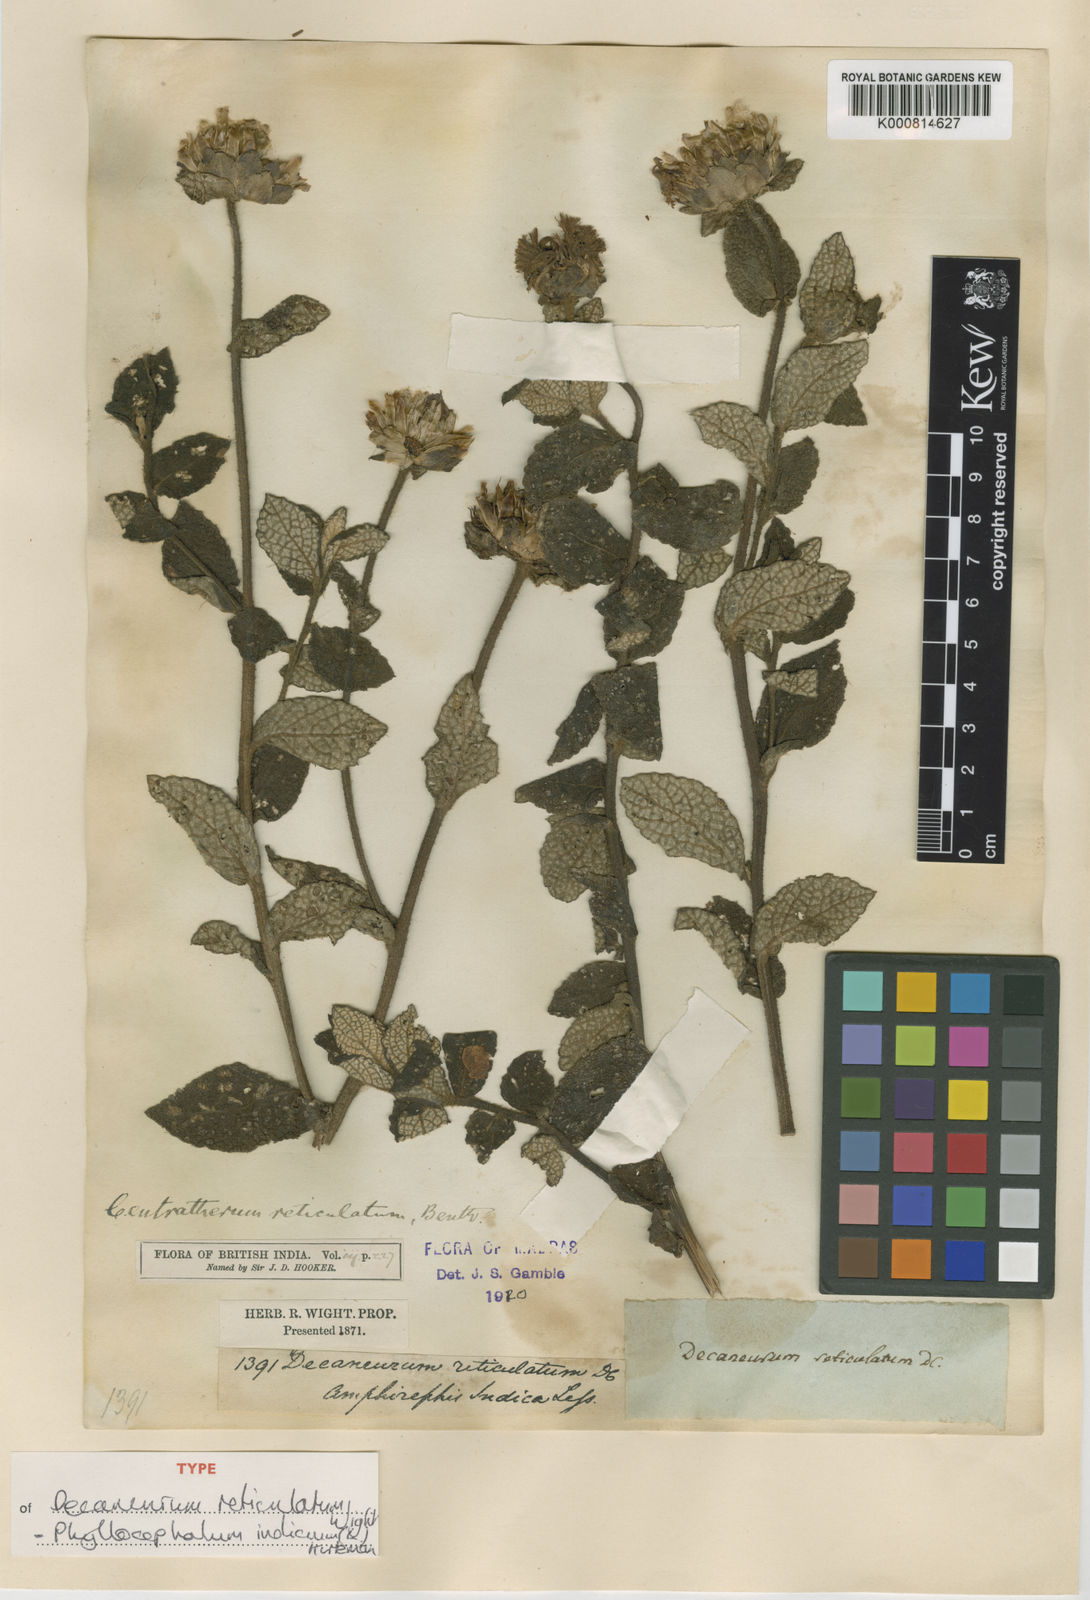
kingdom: Plantae
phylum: Tracheophyta
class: Magnoliopsida
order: Asterales
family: Asteraceae
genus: Phyllocephalum
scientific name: Phyllocephalum indicum
